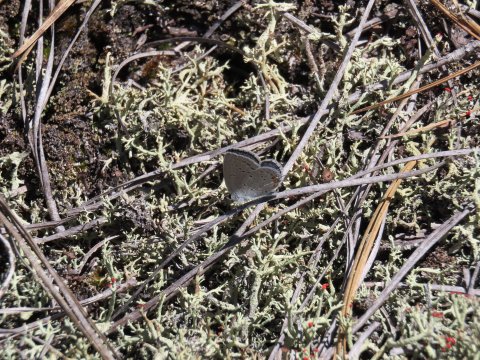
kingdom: Animalia
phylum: Arthropoda
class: Insecta
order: Lepidoptera
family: Lycaenidae
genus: Elkalyce
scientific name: Elkalyce comyntas
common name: Eastern Tailed-Blue
